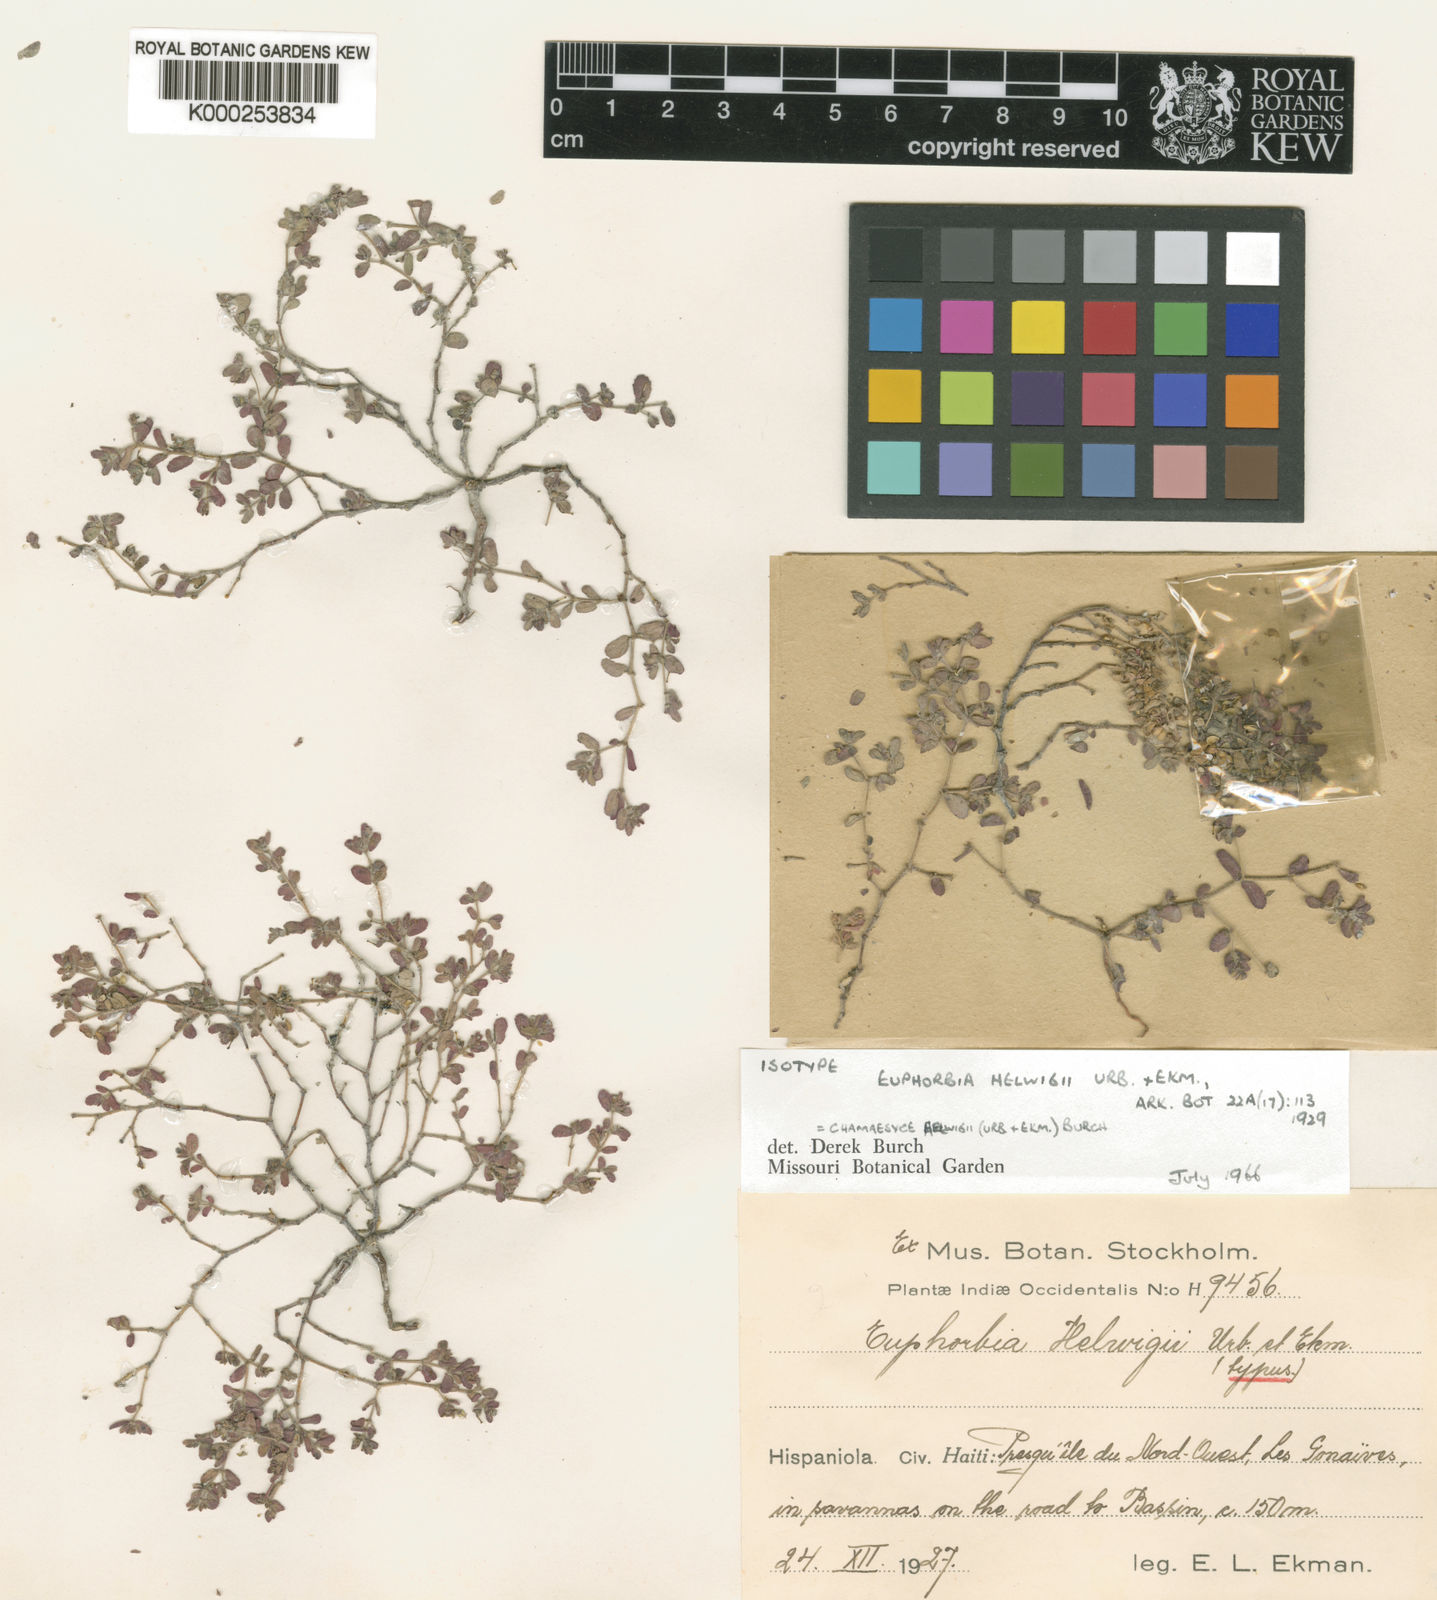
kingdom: Plantae
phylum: Tracheophyta
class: Magnoliopsida
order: Malpighiales
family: Euphorbiaceae
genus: Euphorbia
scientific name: Euphorbia helwigii
